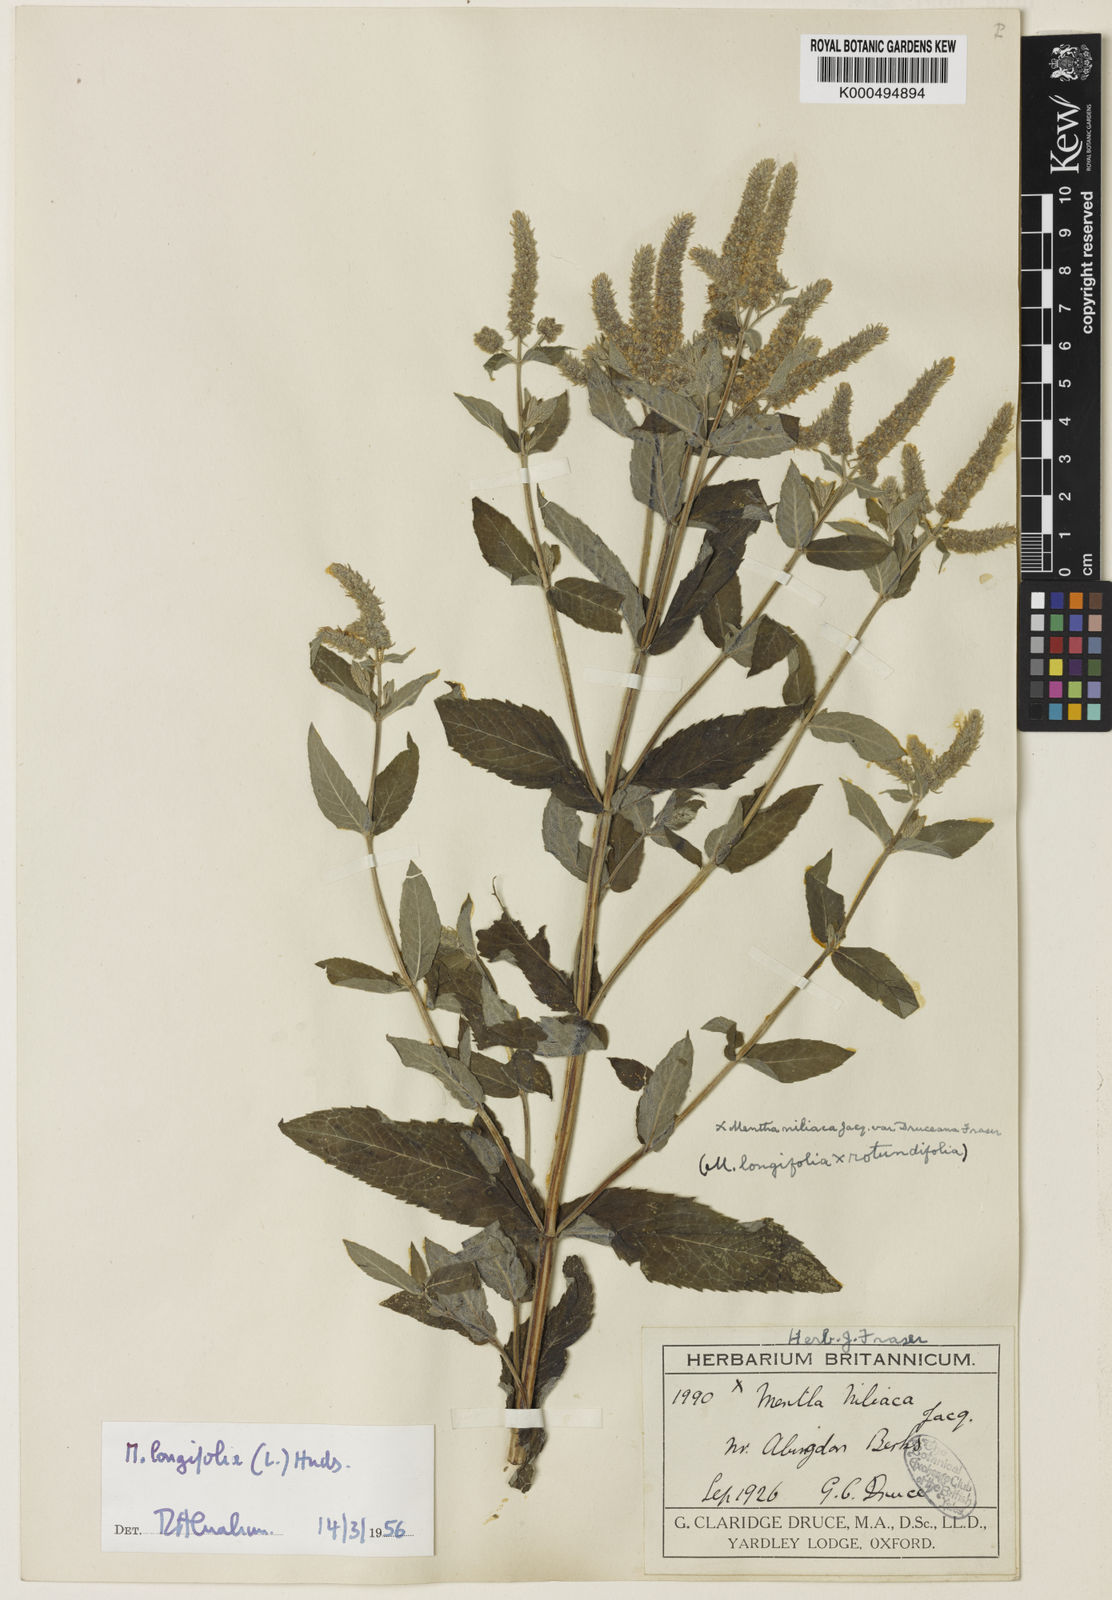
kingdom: Plantae
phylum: Tracheophyta
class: Magnoliopsida
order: Lamiales
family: Lamiaceae
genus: Mentha
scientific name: Mentha villosa
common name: Apple mint
